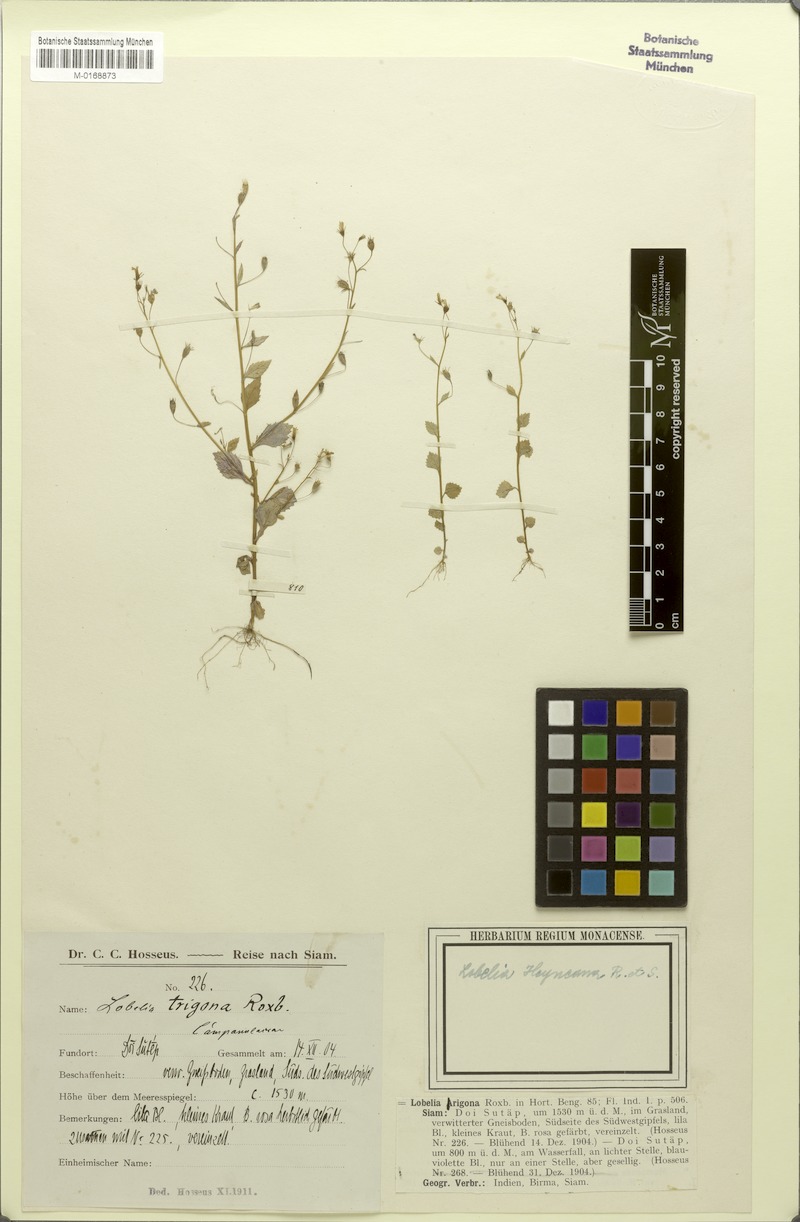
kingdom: Plantae
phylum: Tracheophyta
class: Magnoliopsida
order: Asterales
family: Campanulaceae
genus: Lobelia
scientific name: Lobelia heyneana
